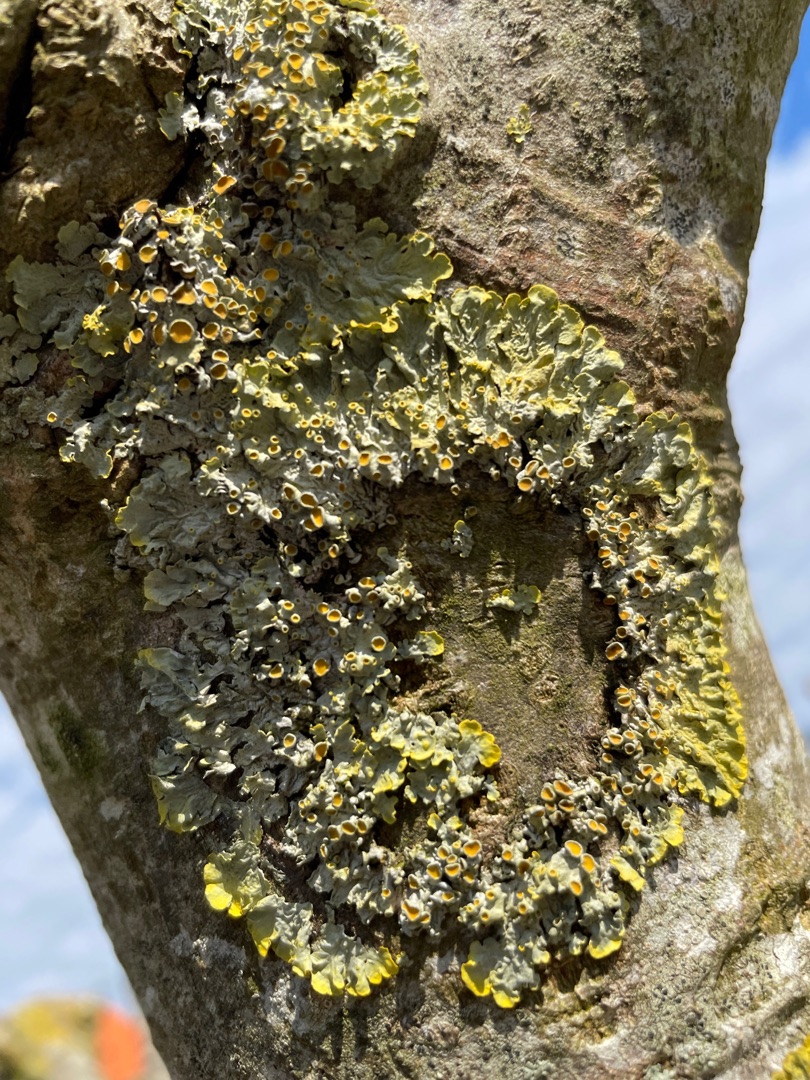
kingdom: Fungi
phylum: Ascomycota
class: Lecanoromycetes
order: Teloschistales
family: Teloschistaceae
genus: Xanthoria
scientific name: Xanthoria parietina
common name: Almindelig væggelav
